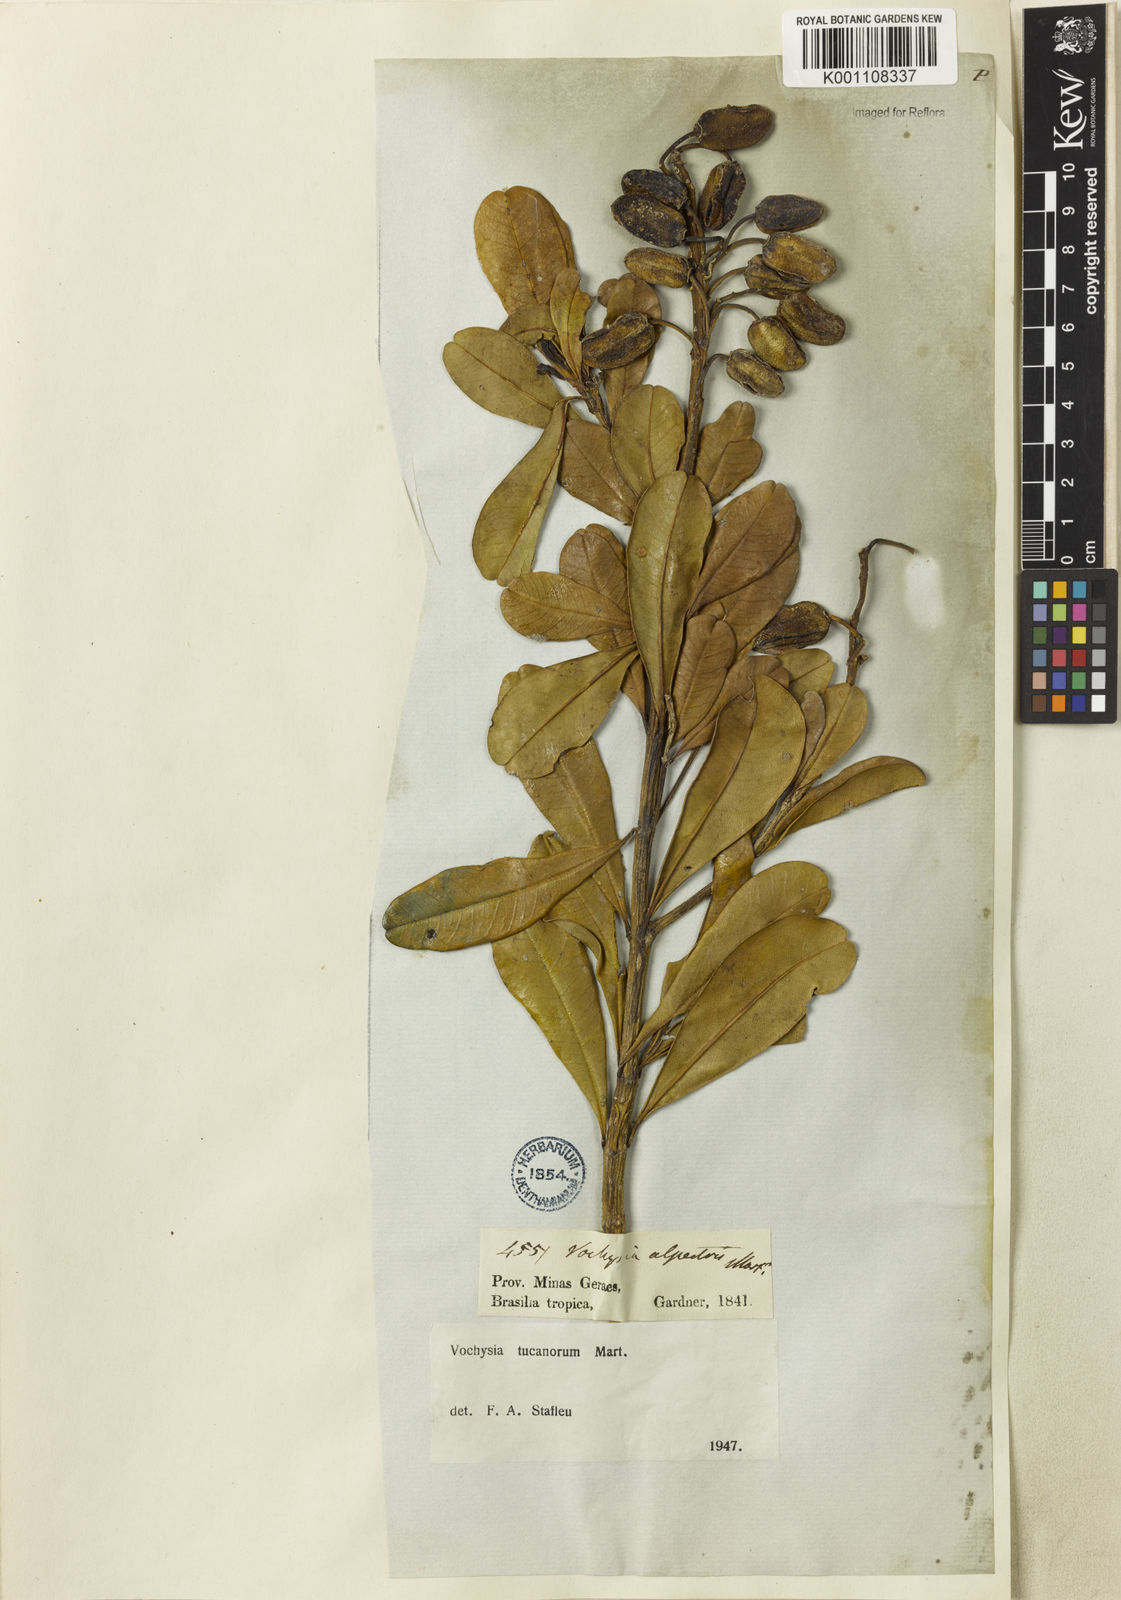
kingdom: Plantae
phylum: Tracheophyta
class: Magnoliopsida
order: Myrtales
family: Vochysiaceae
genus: Vochysia
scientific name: Vochysia tucanorum
